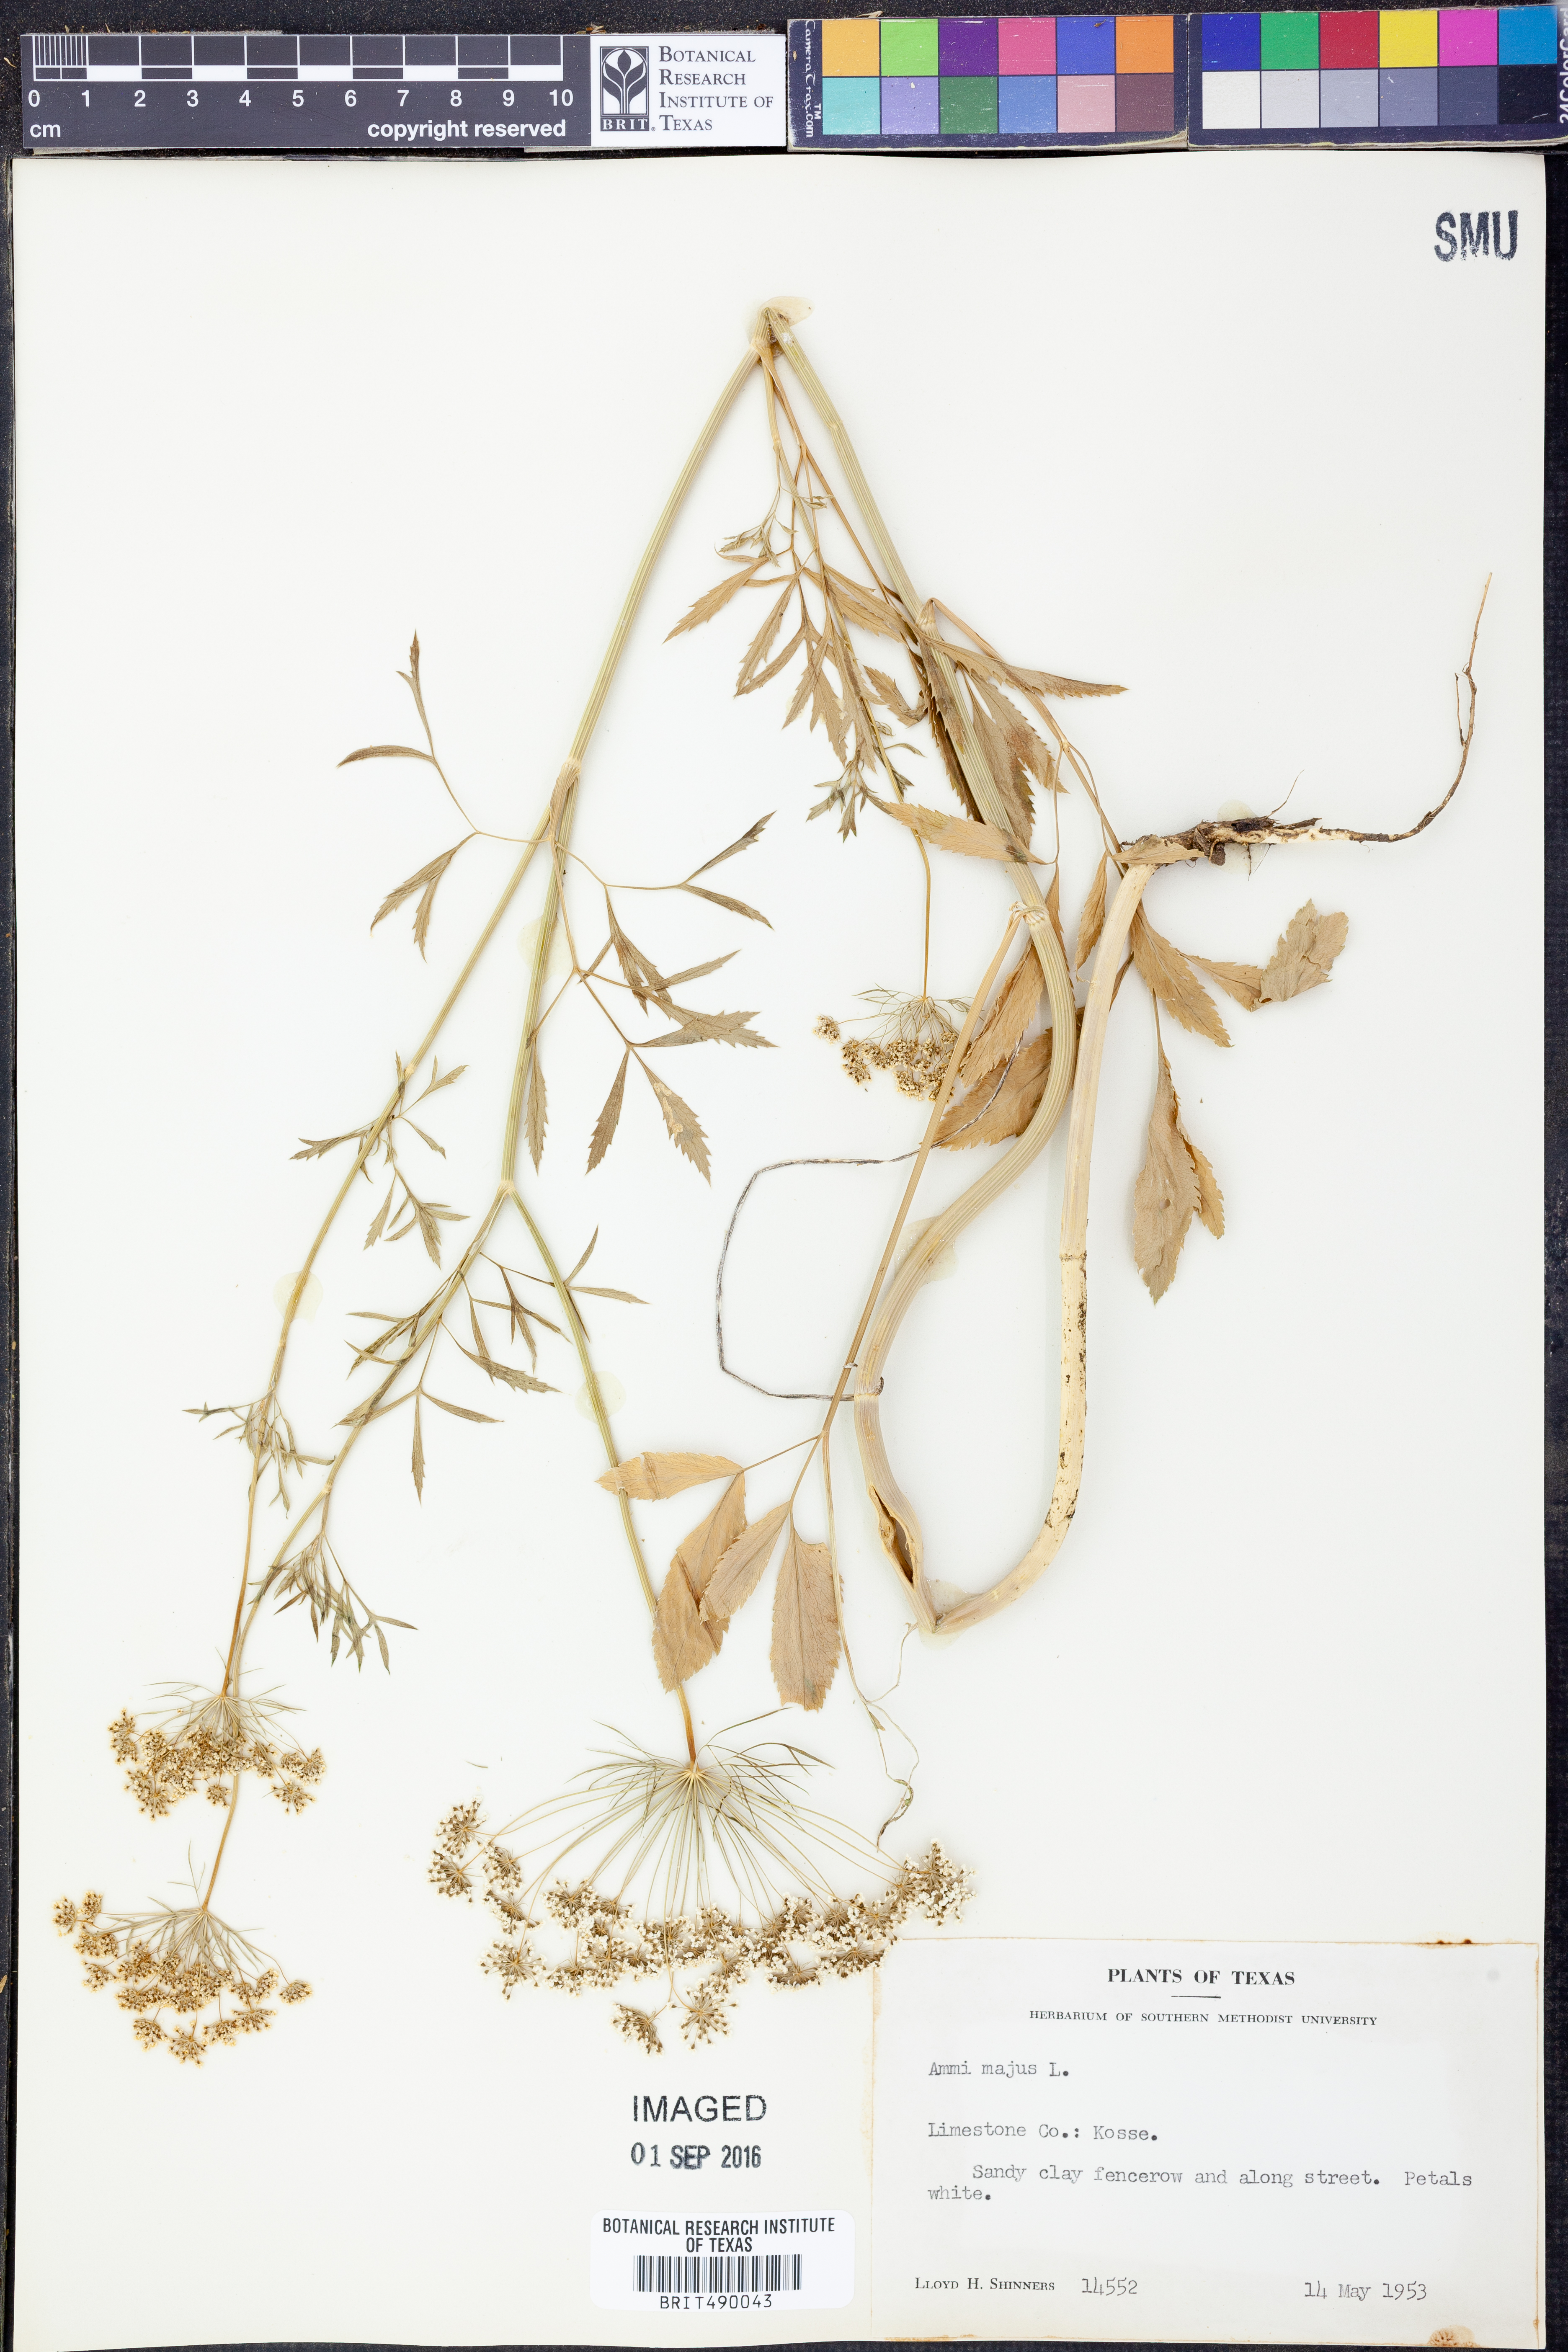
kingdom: Plantae
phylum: Tracheophyta
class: Magnoliopsida
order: Apiales
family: Apiaceae
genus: Ammi
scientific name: Ammi majus
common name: Bullwort
